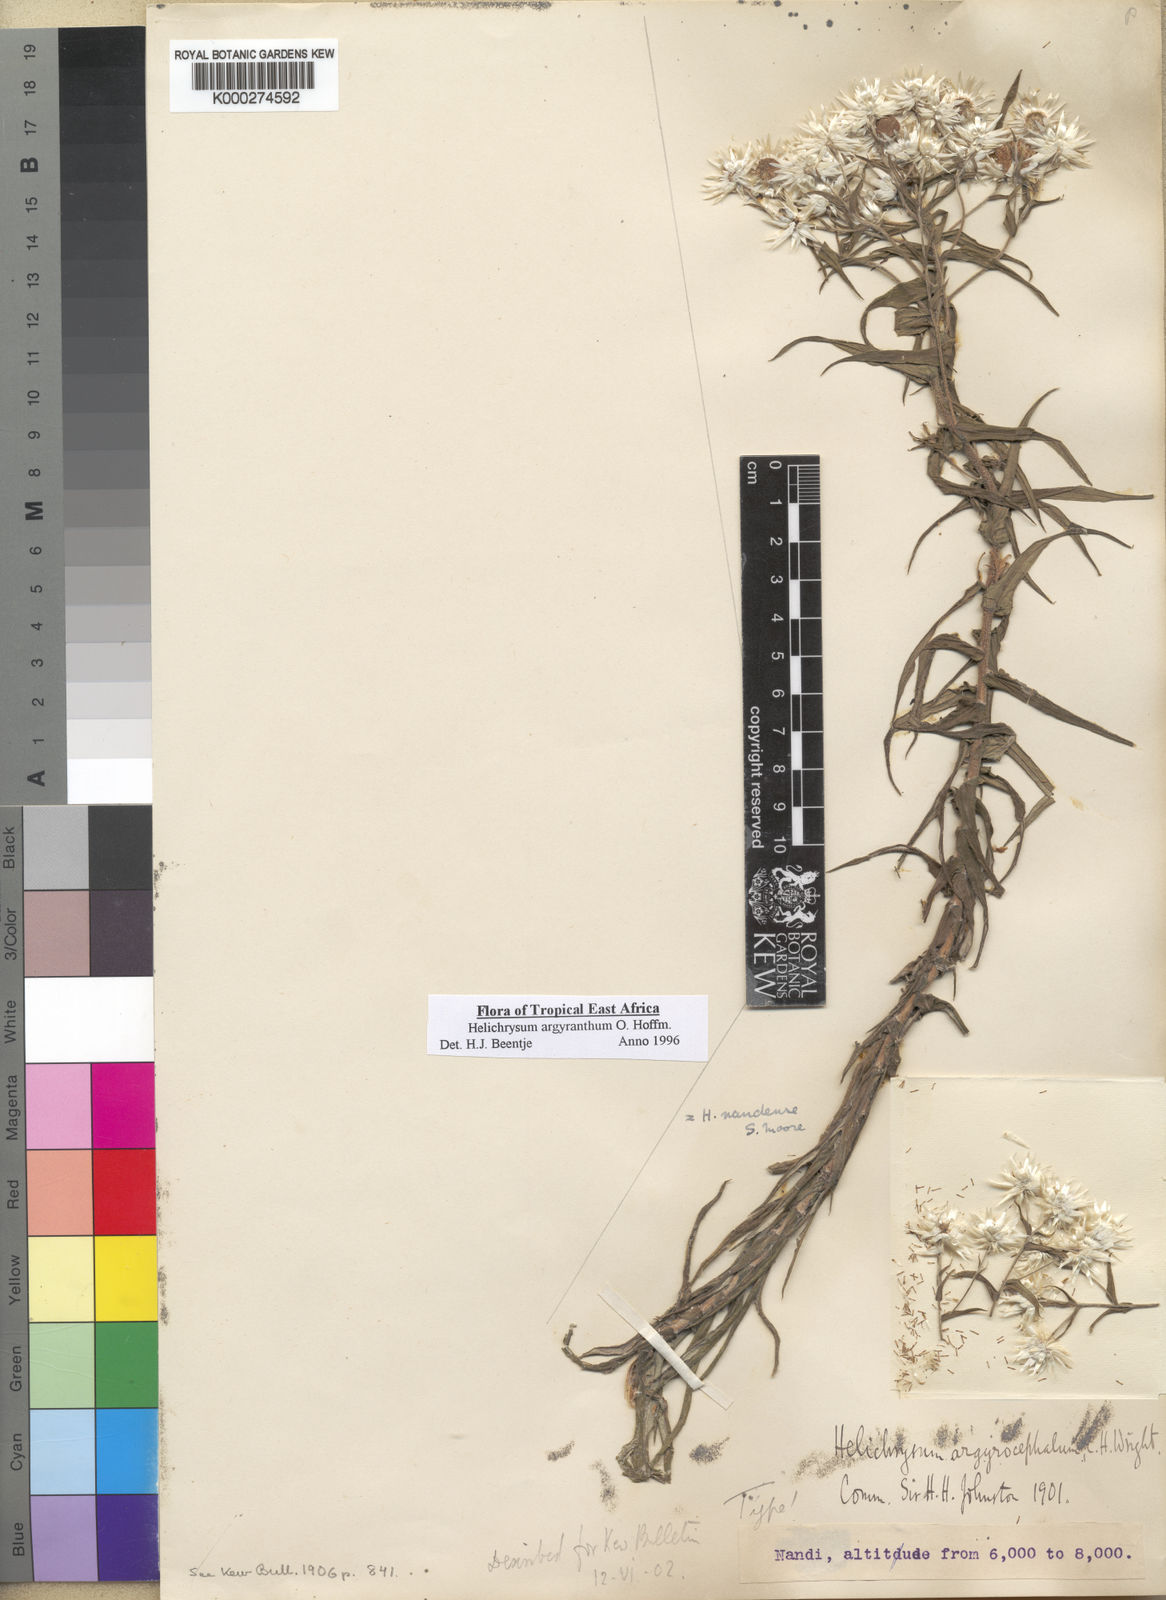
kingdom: Plantae
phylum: Tracheophyta
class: Magnoliopsida
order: Asterales
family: Asteraceae
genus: Helichrysum
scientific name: Helichrysum argyranthum
